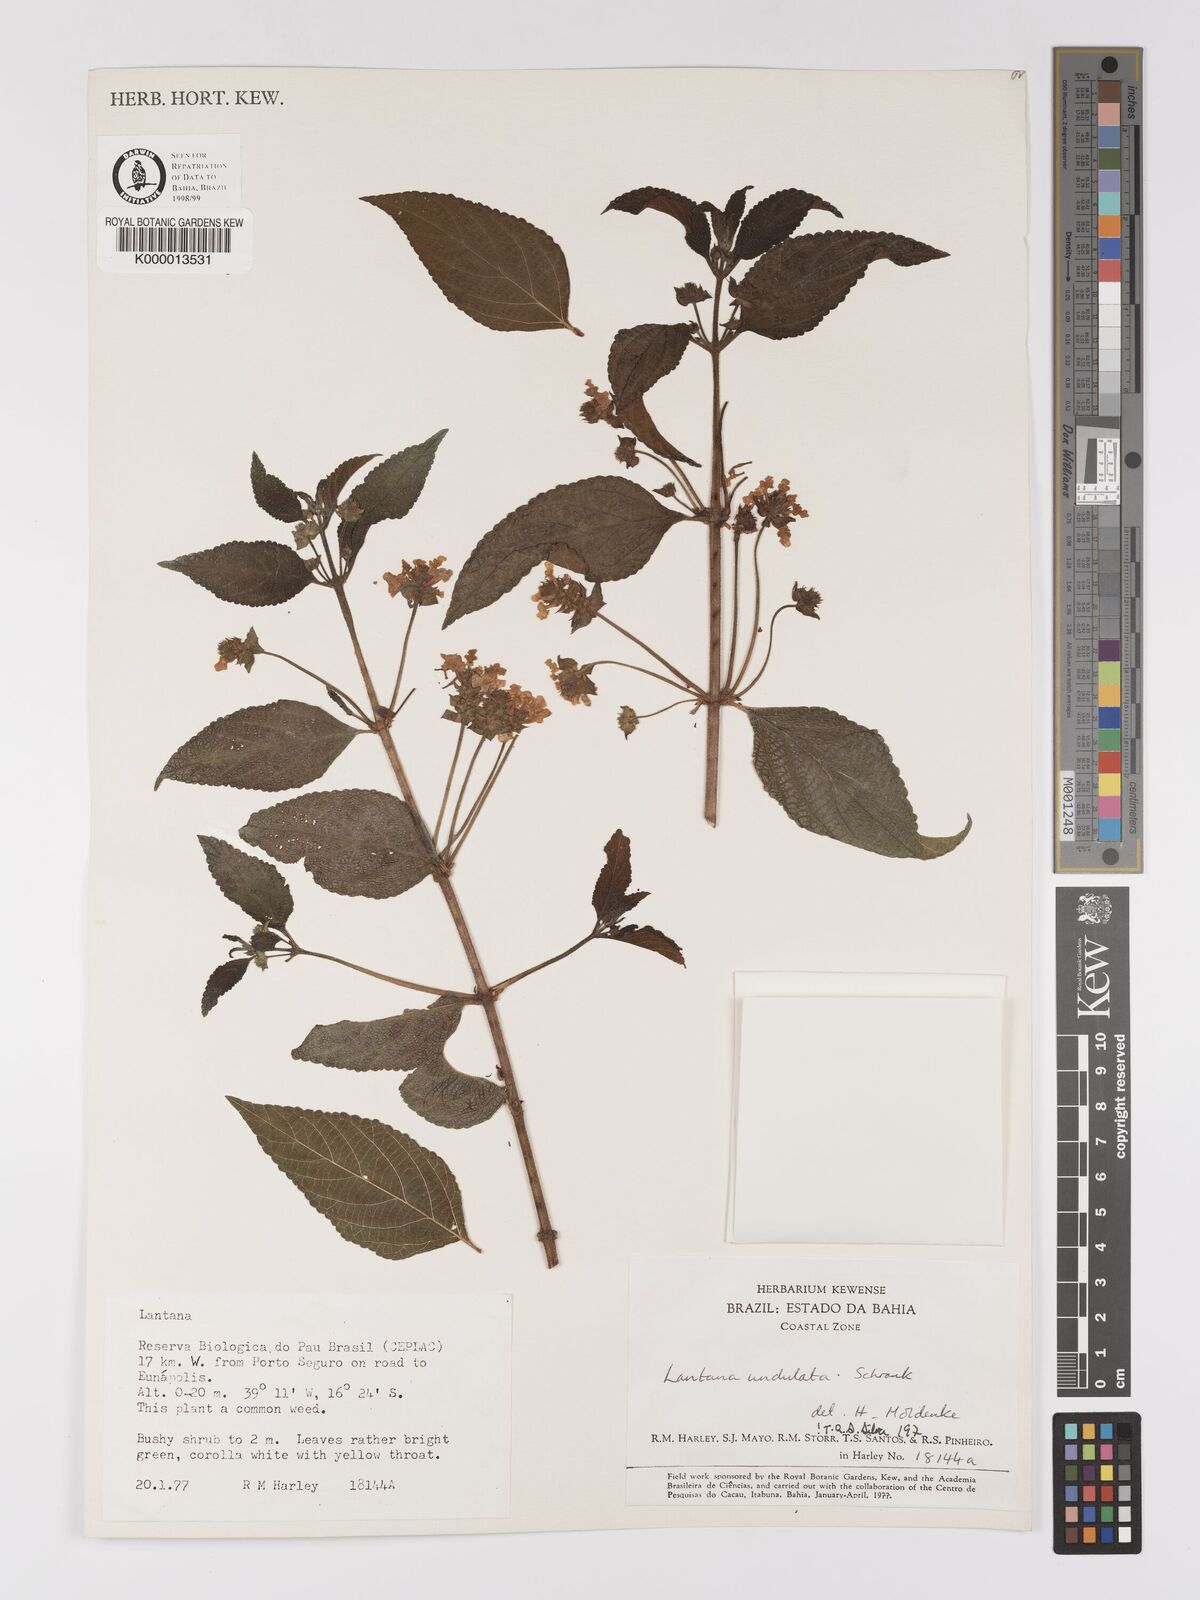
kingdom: Plantae
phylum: Tracheophyta
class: Magnoliopsida
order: Lamiales
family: Verbenaceae
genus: Lantana
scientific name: Lantana undulata
